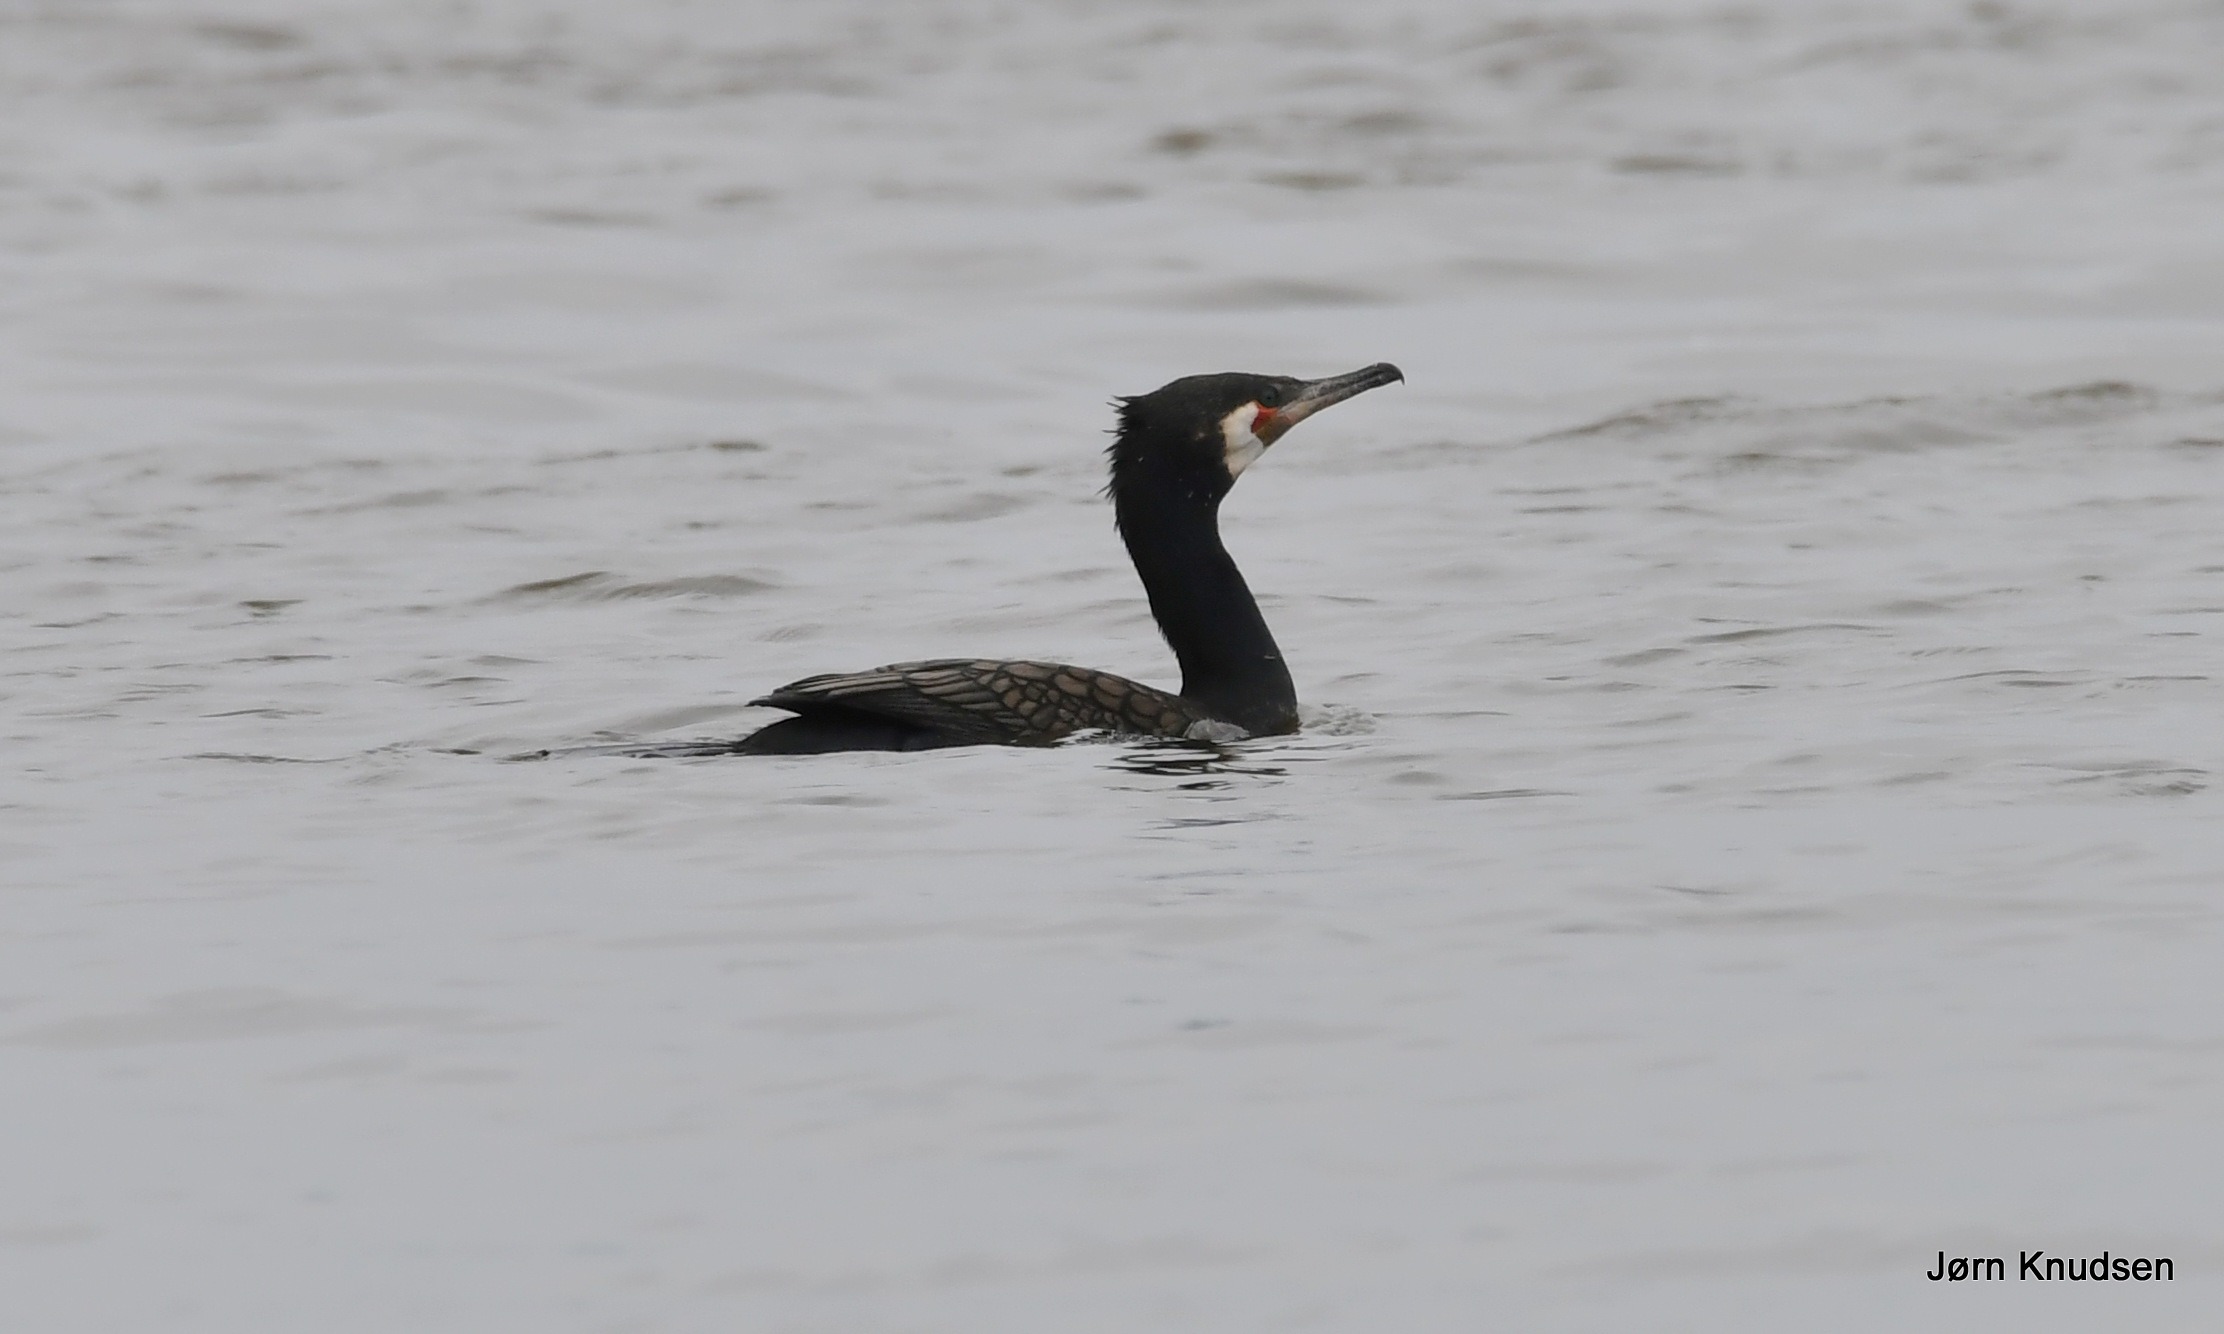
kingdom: Animalia
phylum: Chordata
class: Aves
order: Suliformes
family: Phalacrocoracidae
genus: Phalacrocorax
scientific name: Phalacrocorax carbo
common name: Skarv
